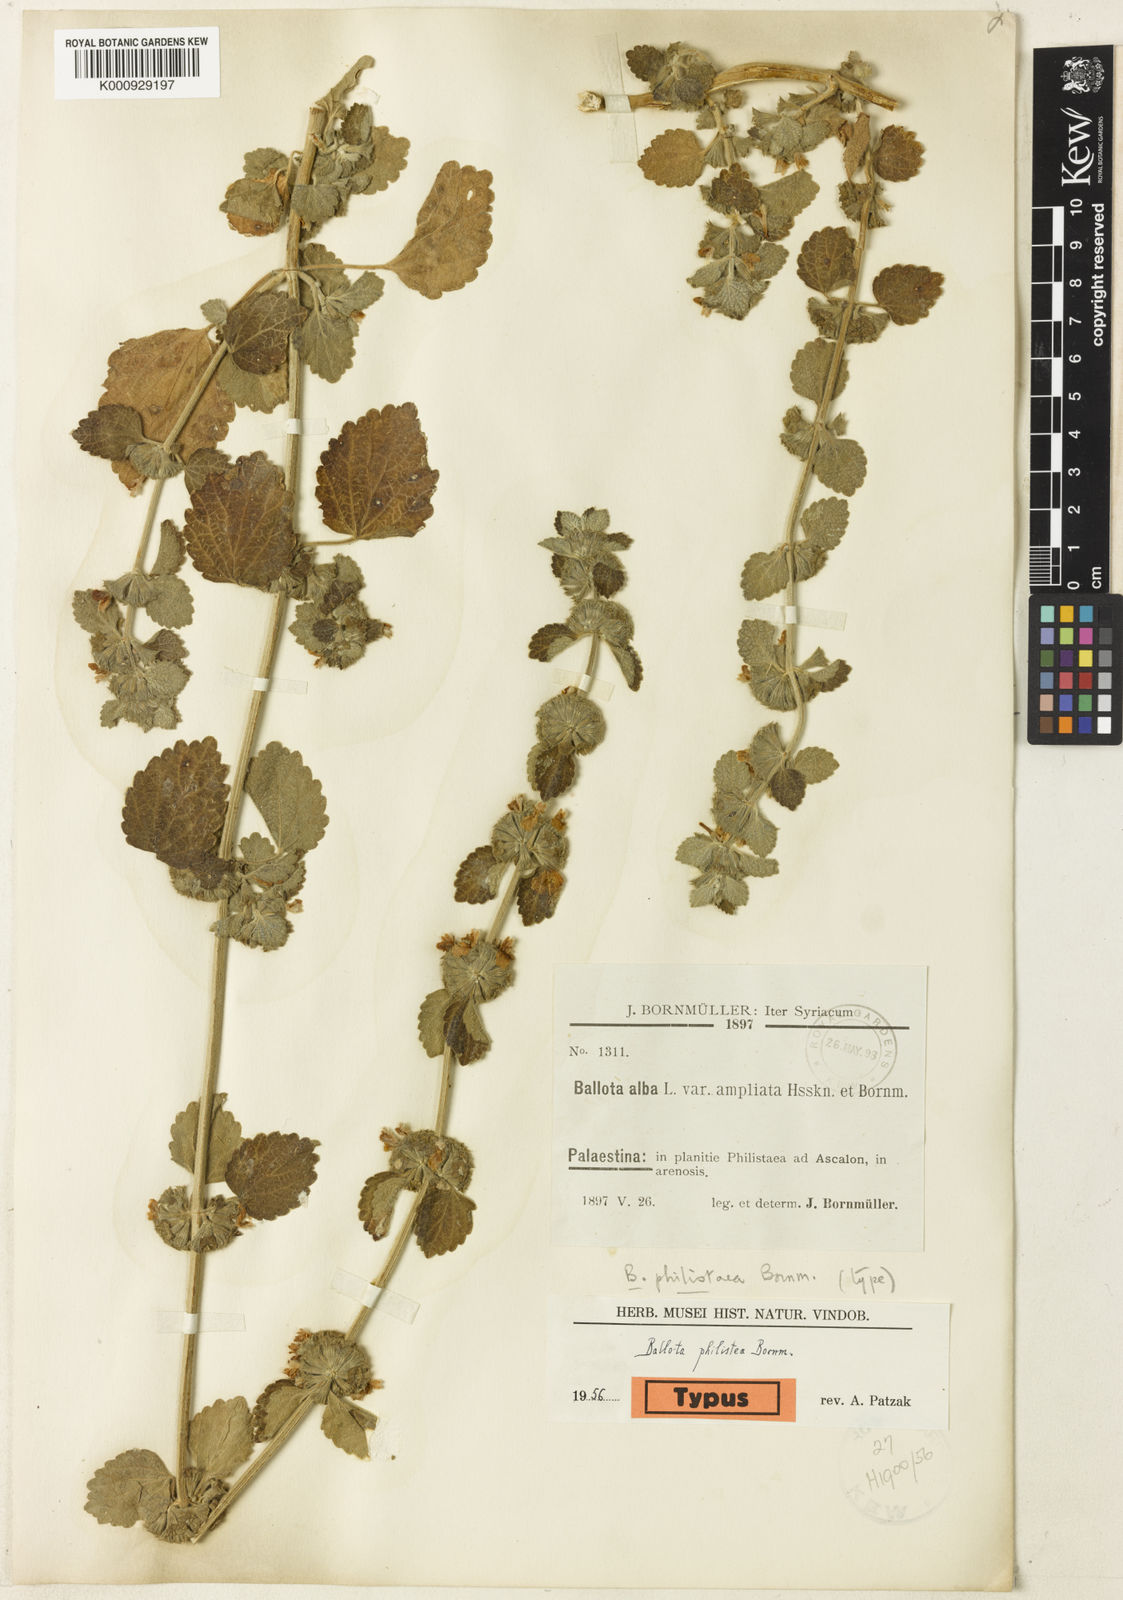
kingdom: Plantae
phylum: Tracheophyta
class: Magnoliopsida
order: Lamiales
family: Lamiaceae
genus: Ballota
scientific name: Ballota nigra
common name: Black horehound
